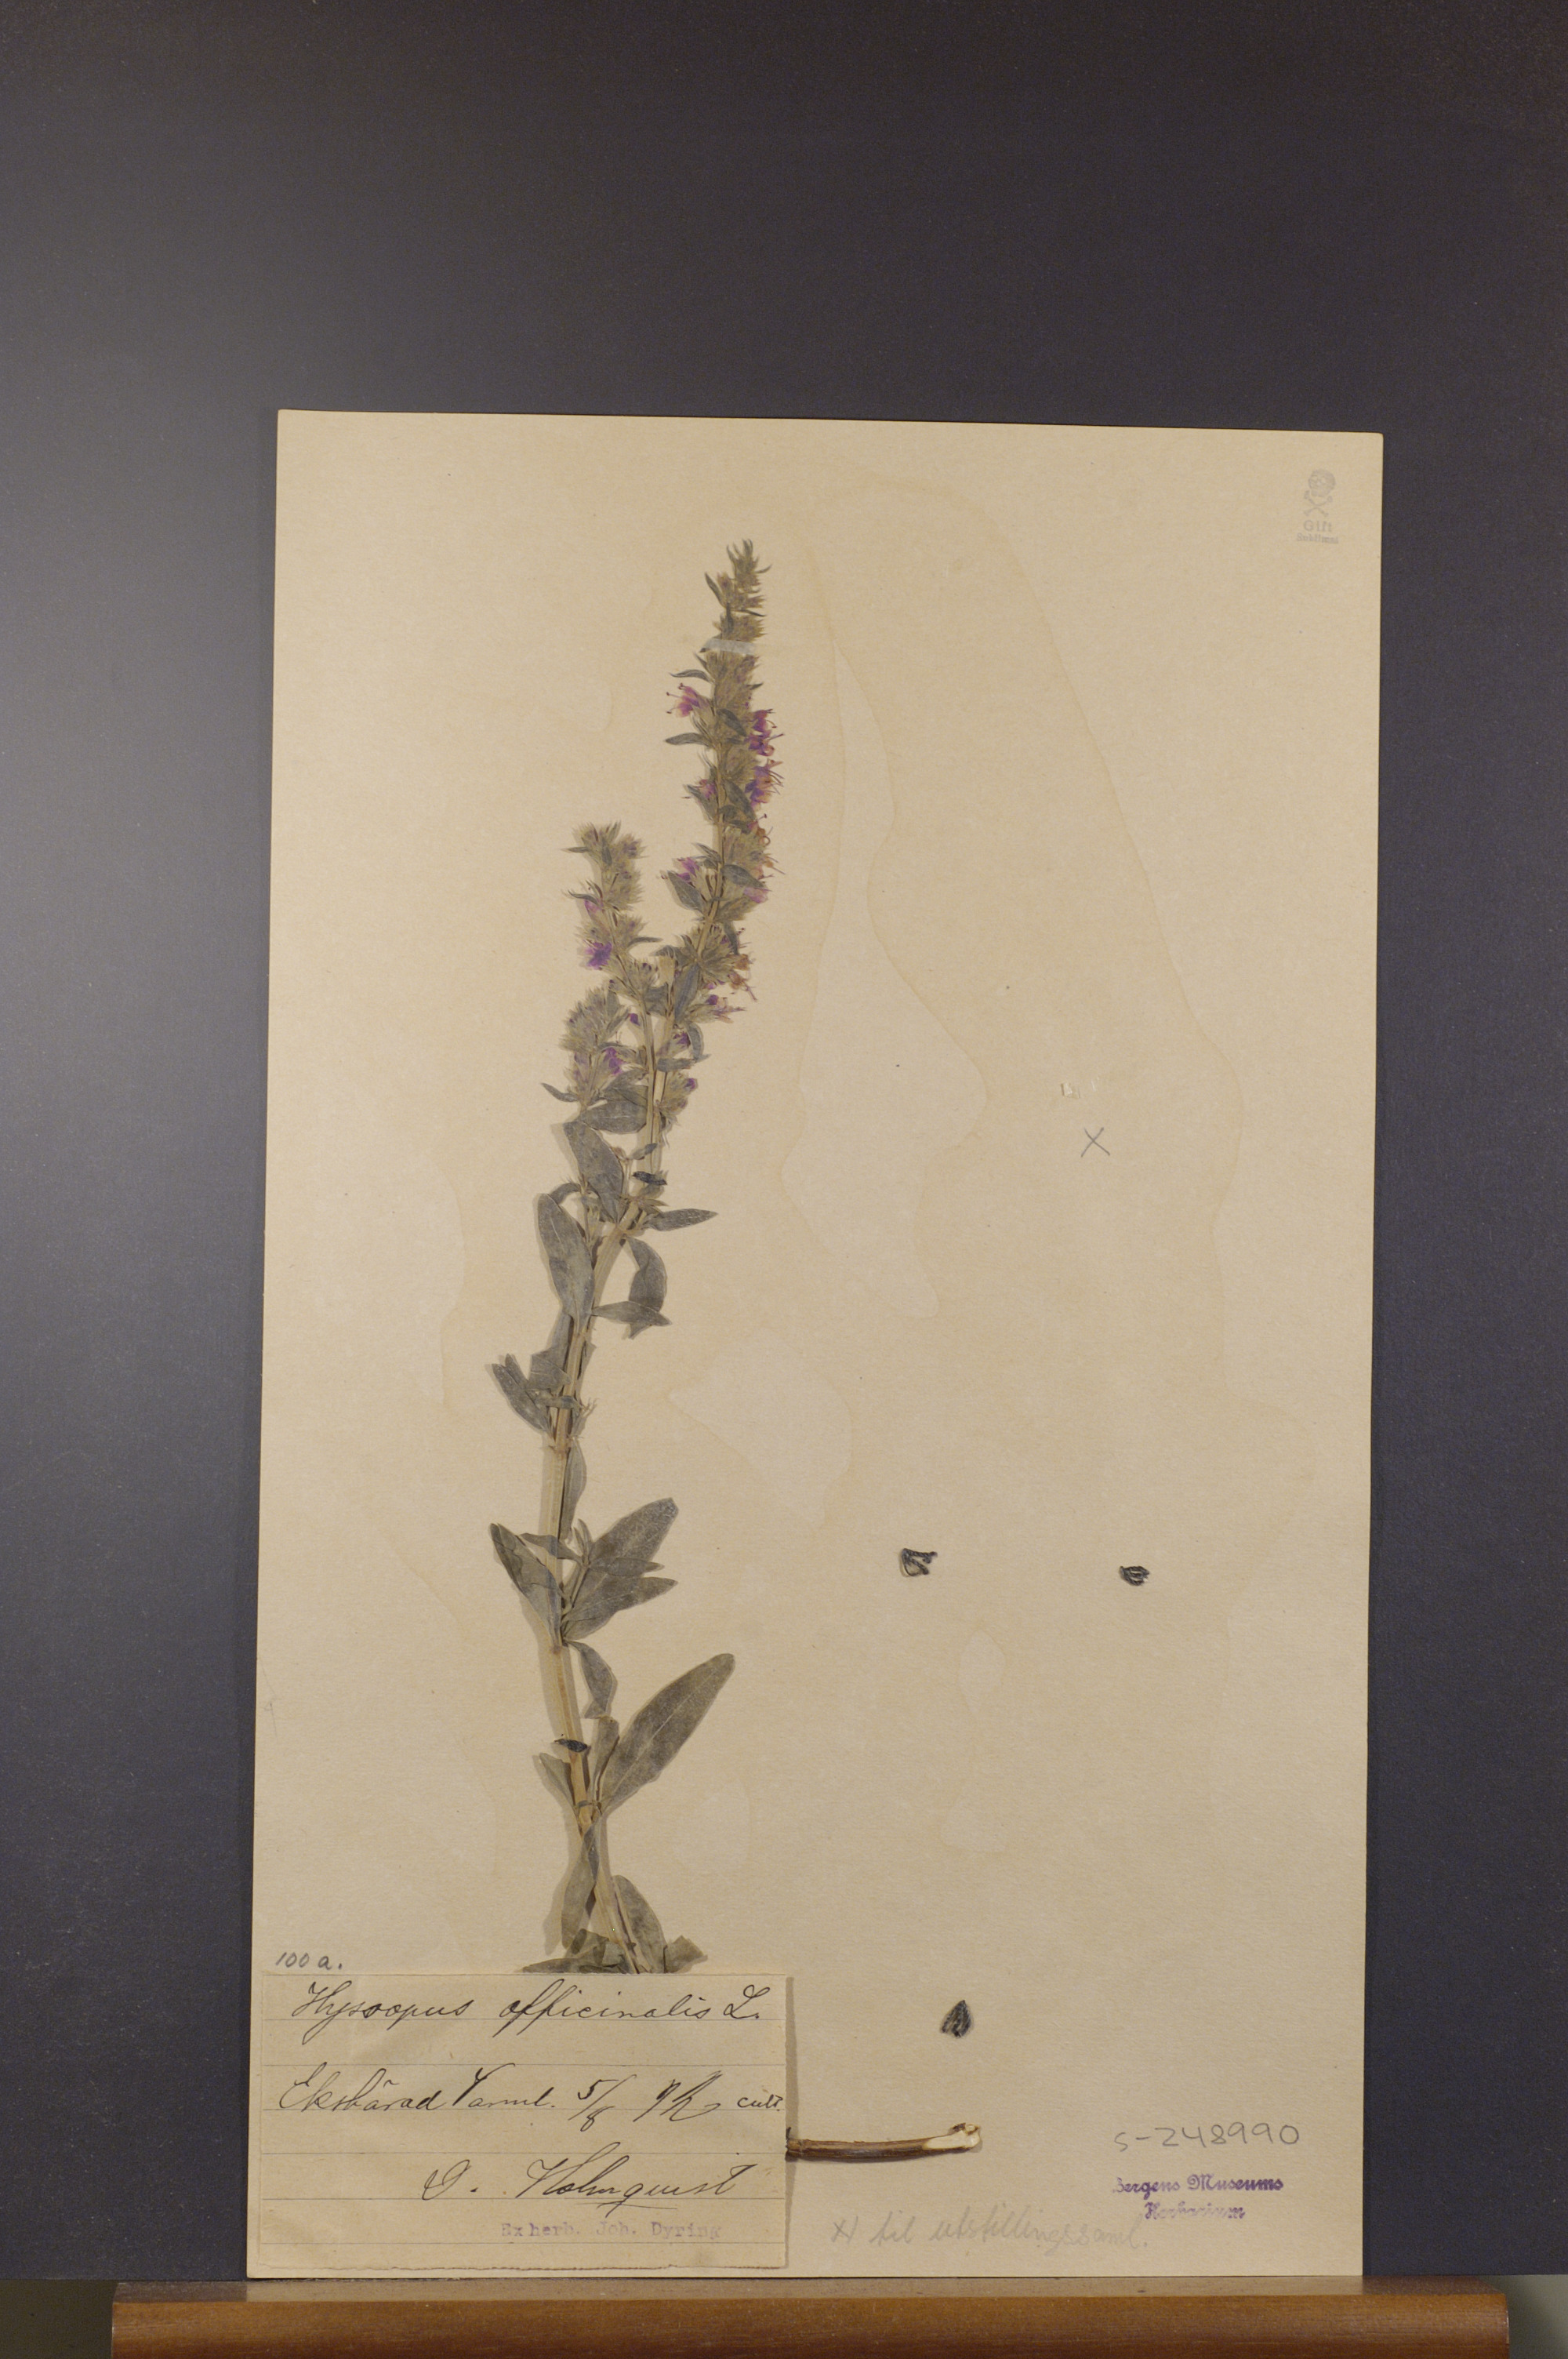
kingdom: Plantae
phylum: Tracheophyta
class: Magnoliopsida
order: Lamiales
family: Lamiaceae
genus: Hyssopus
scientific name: Hyssopus officinalis
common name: Hyssop
